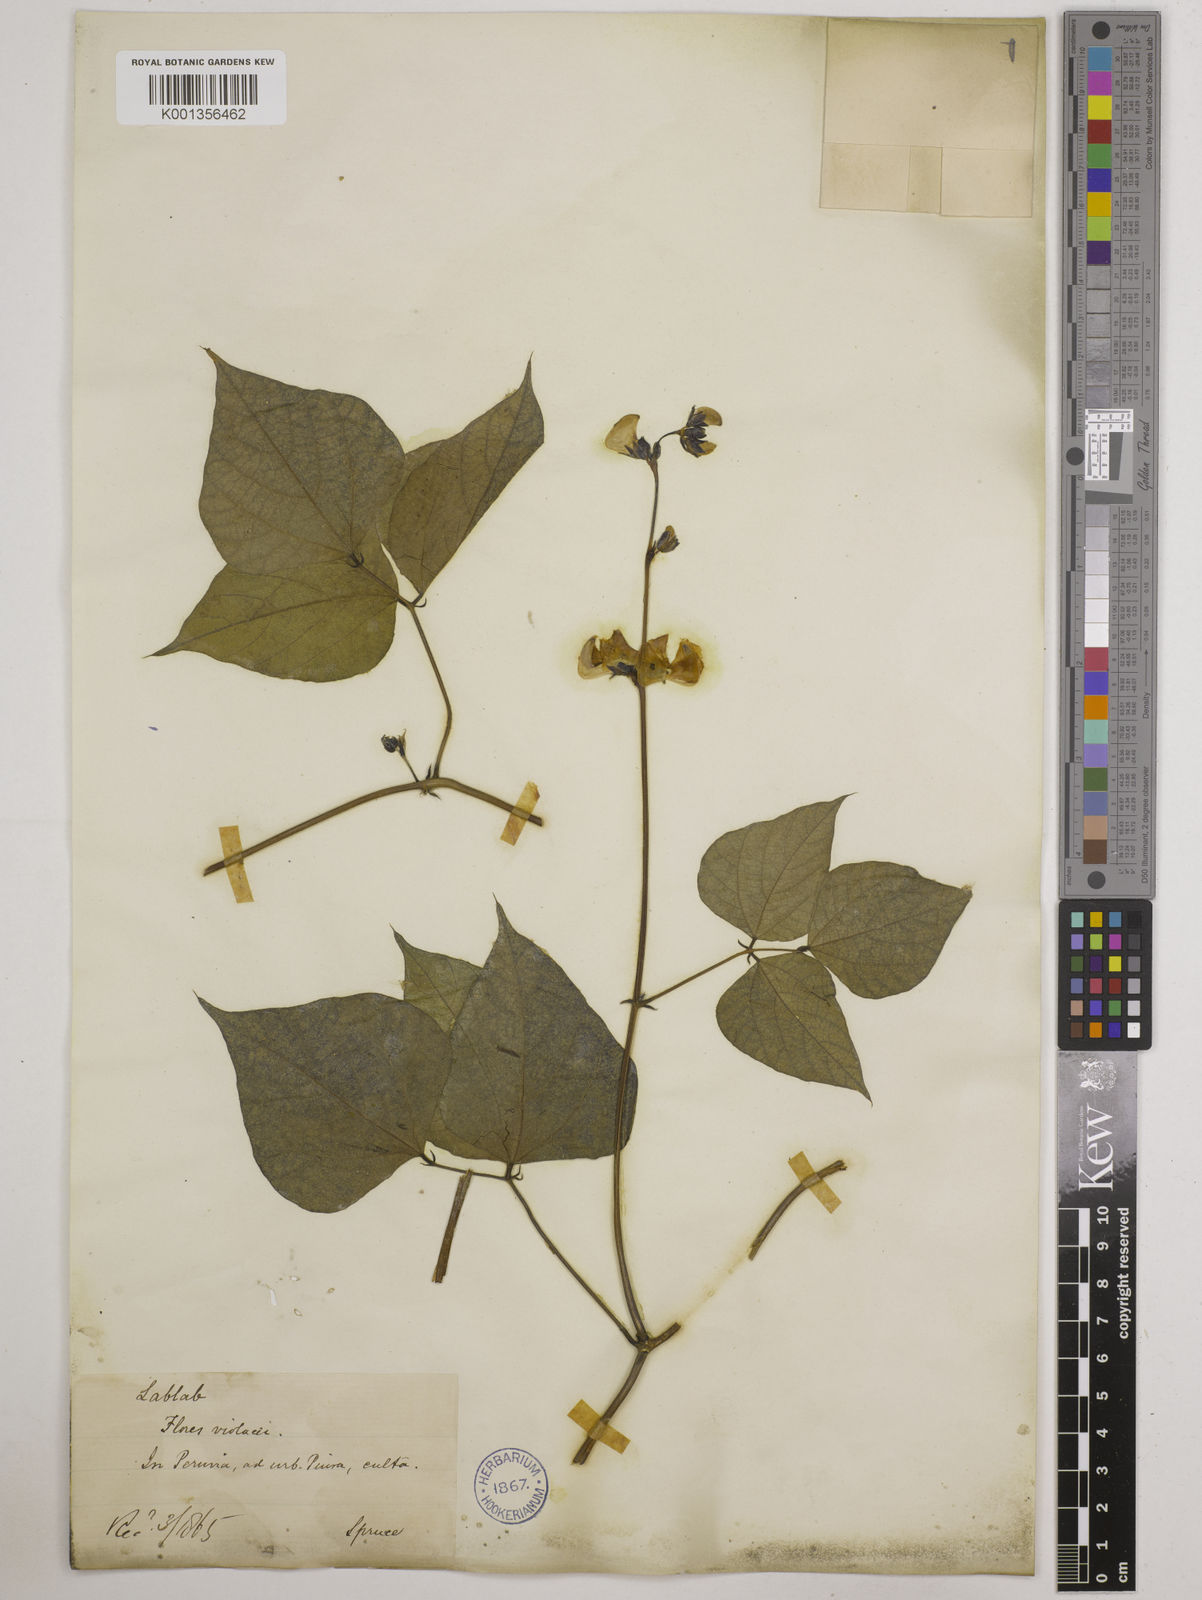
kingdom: Plantae
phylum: Tracheophyta
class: Magnoliopsida
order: Fabales
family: Fabaceae
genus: Lablab
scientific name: Lablab purpureus
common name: Lablab-bean
